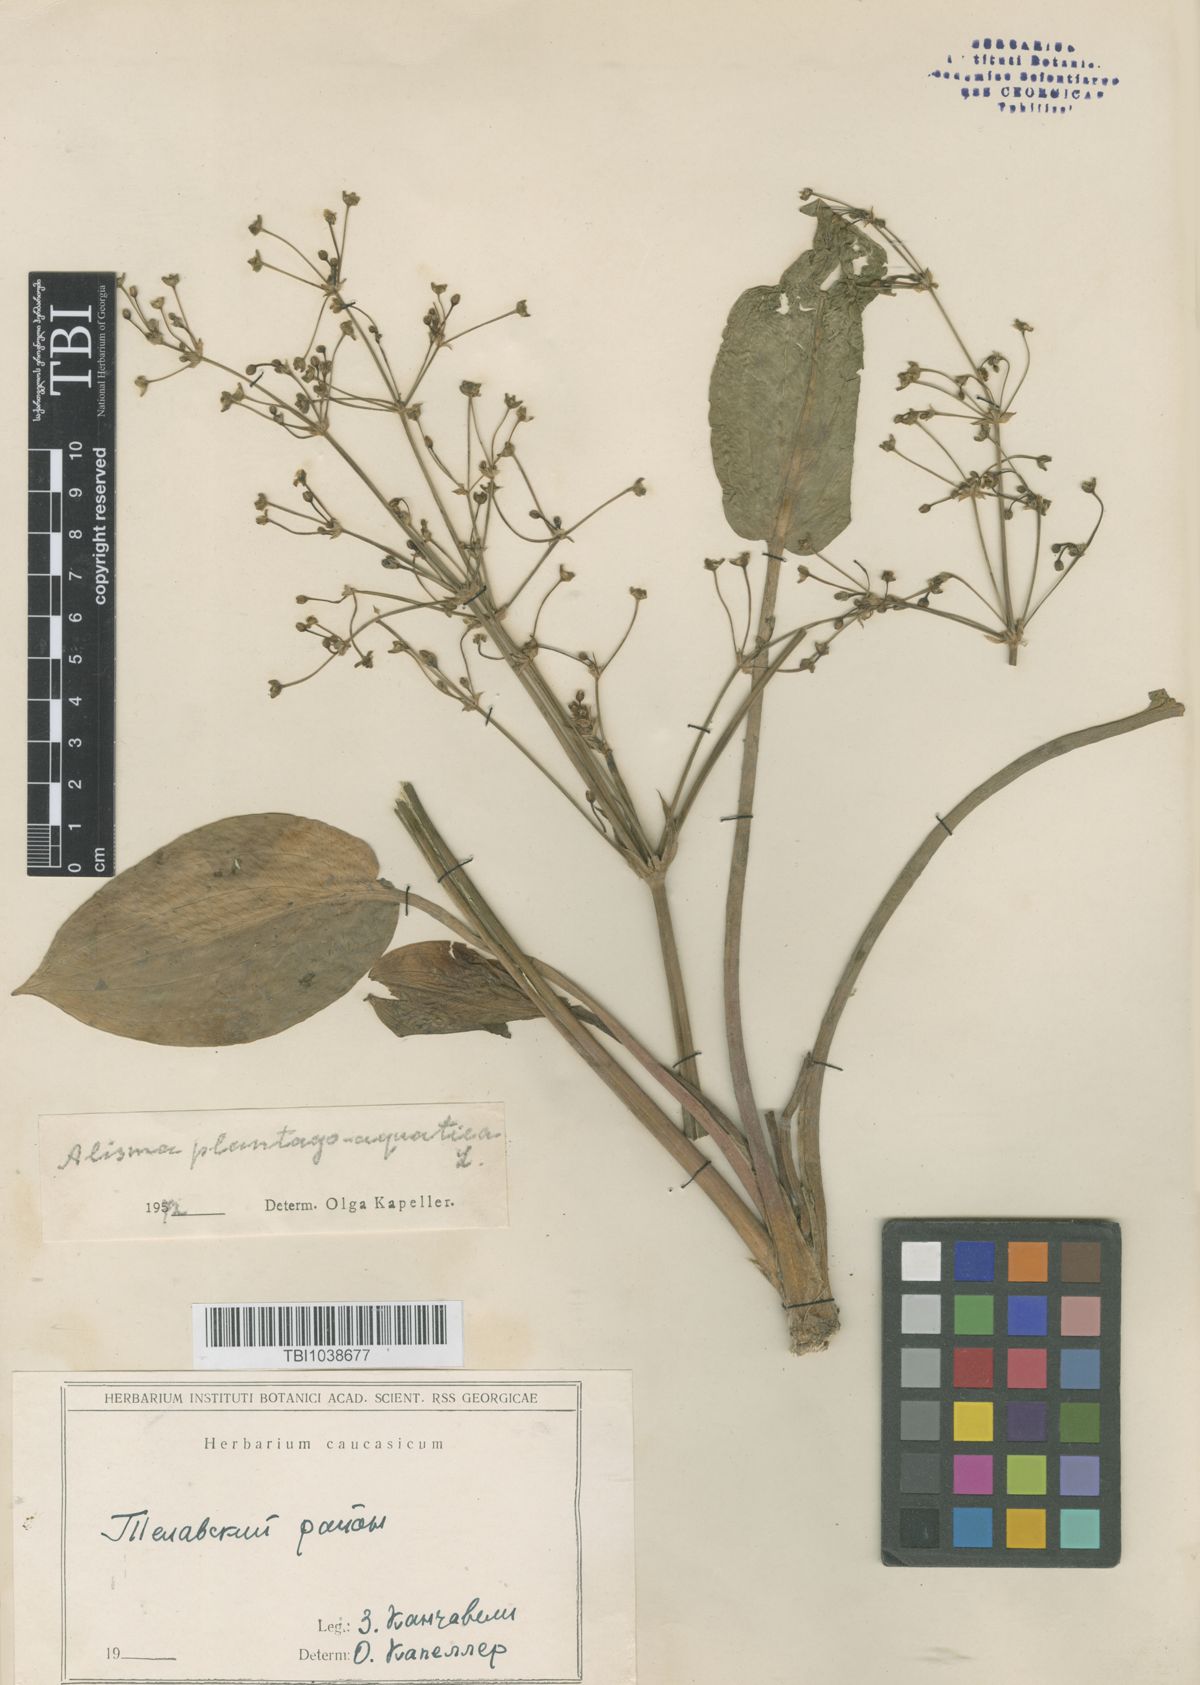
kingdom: Plantae
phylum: Tracheophyta
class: Liliopsida
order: Alismatales
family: Alismataceae
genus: Alisma
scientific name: Alisma plantago-aquatica
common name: Water-plantain
